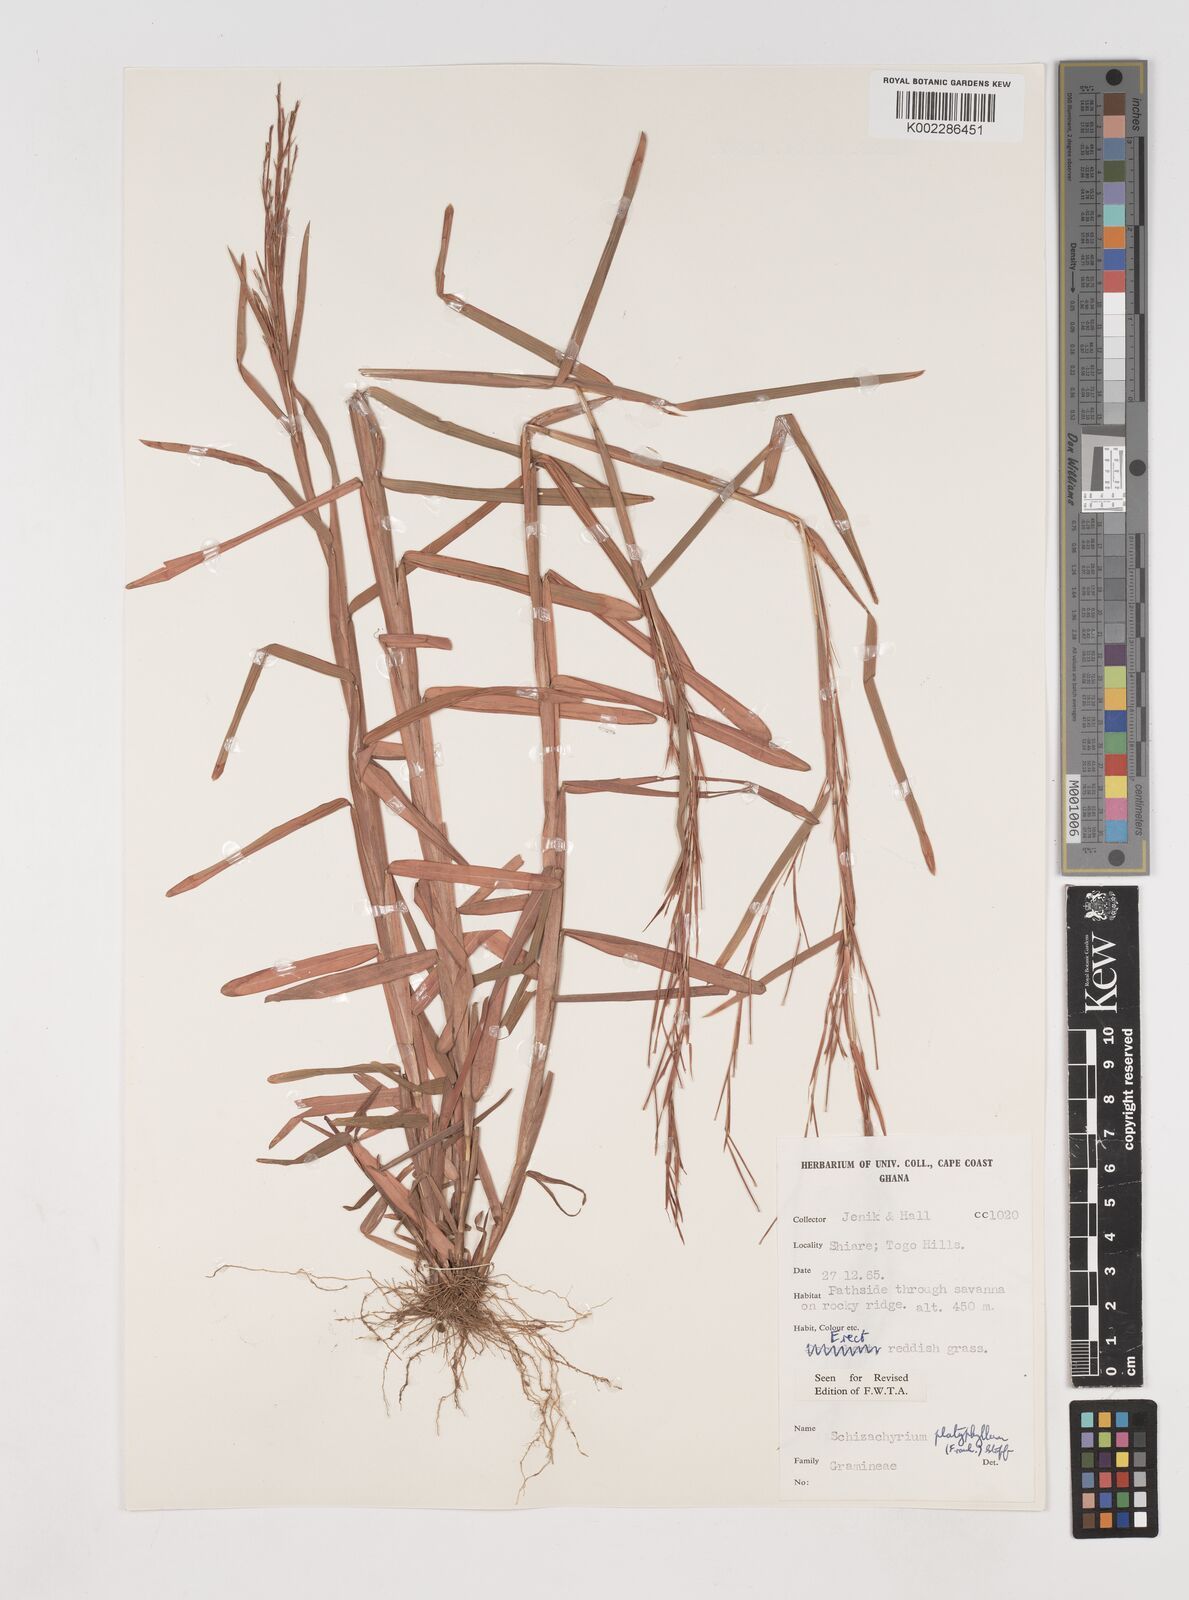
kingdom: Plantae
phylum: Tracheophyta
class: Liliopsida
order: Poales
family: Poaceae
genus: Schizachyrium
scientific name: Schizachyrium platyphyllum
